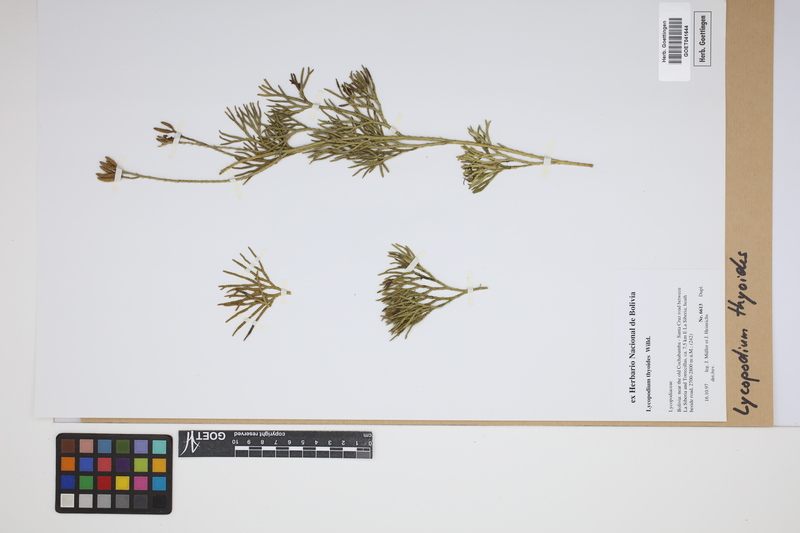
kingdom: Plantae
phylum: Tracheophyta
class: Lycopodiopsida
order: Lycopodiales
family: Lycopodiaceae
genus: Diphasiastrum
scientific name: Diphasiastrum thyoides
